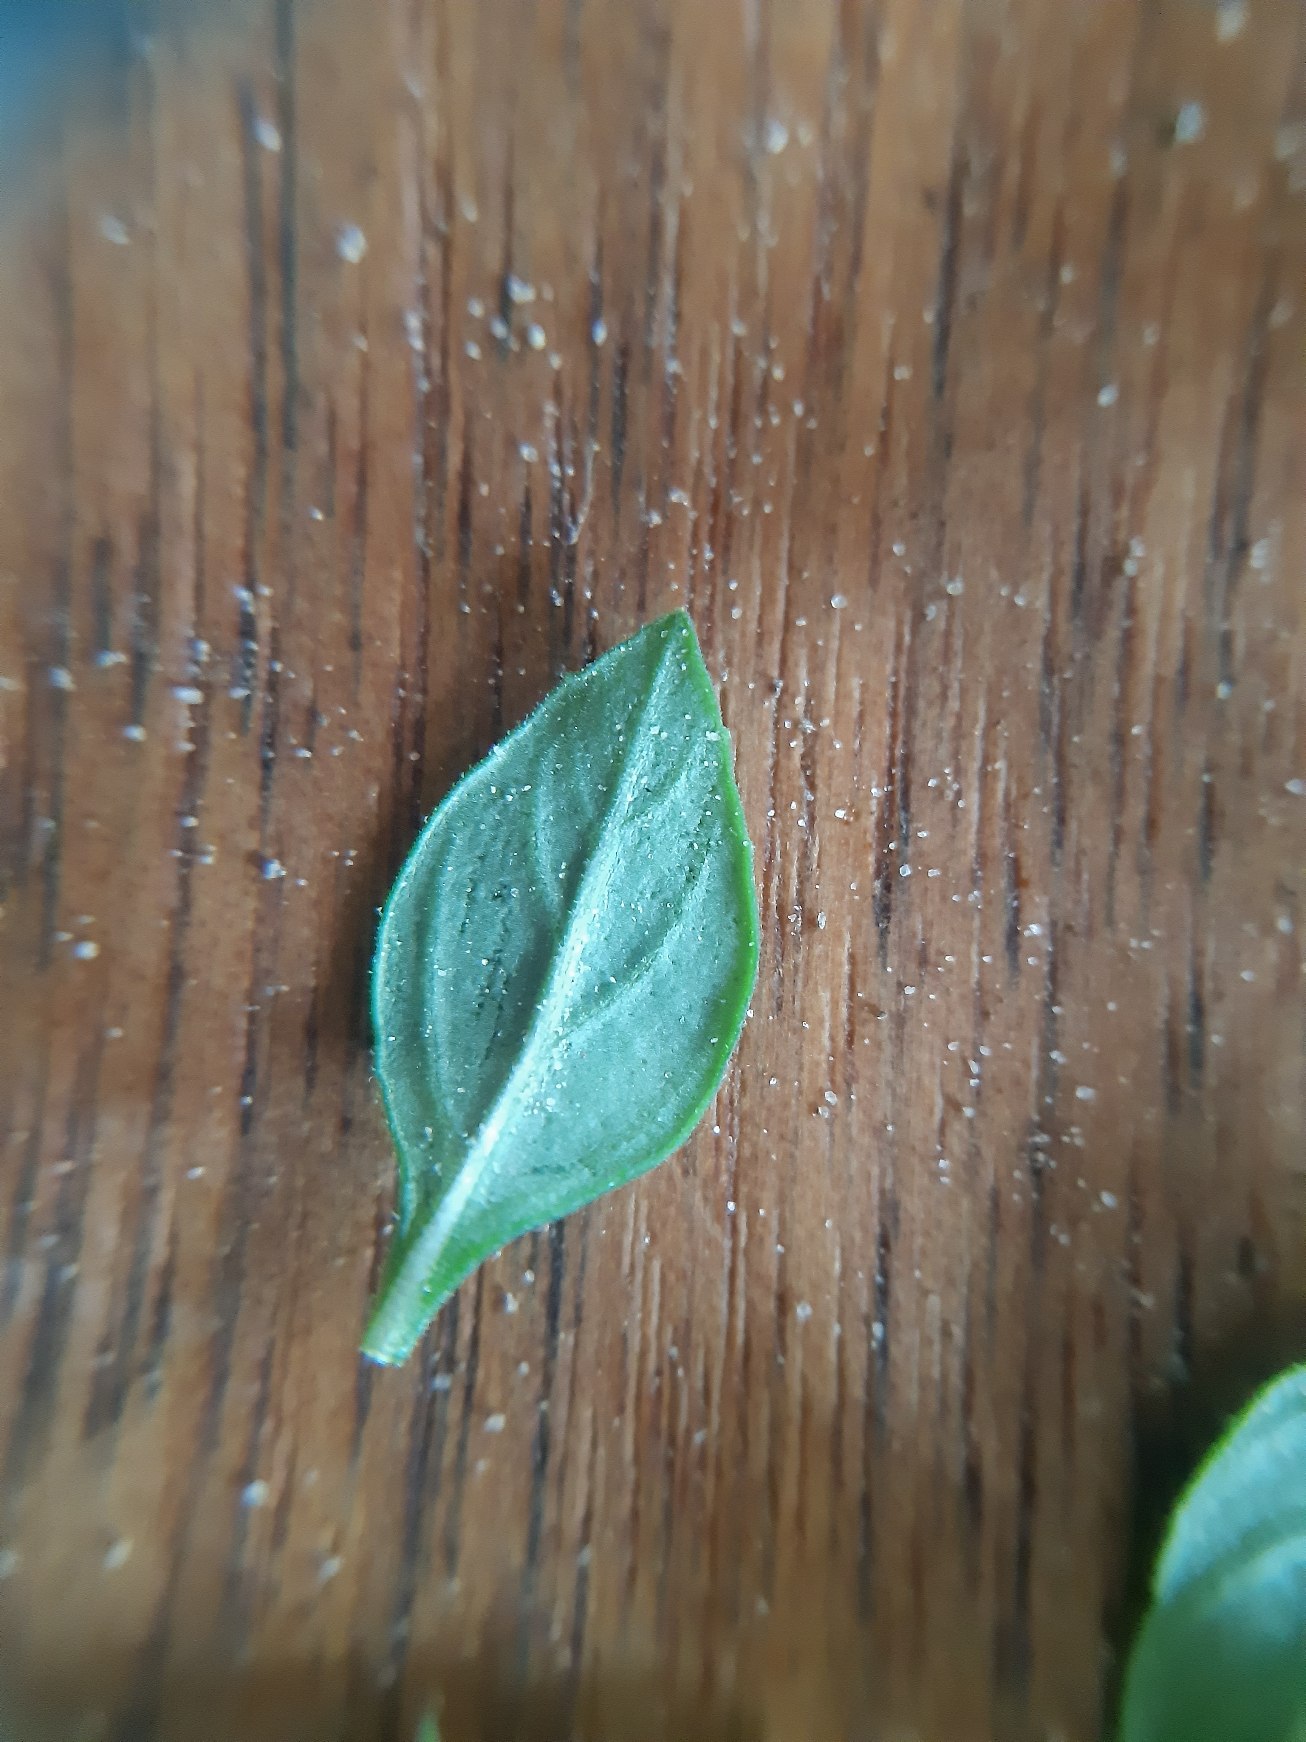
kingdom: Plantae
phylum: Tracheophyta
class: Magnoliopsida
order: Lamiales
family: Lamiaceae
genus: Clinopodium
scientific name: Clinopodium acinos
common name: Voldtimian
